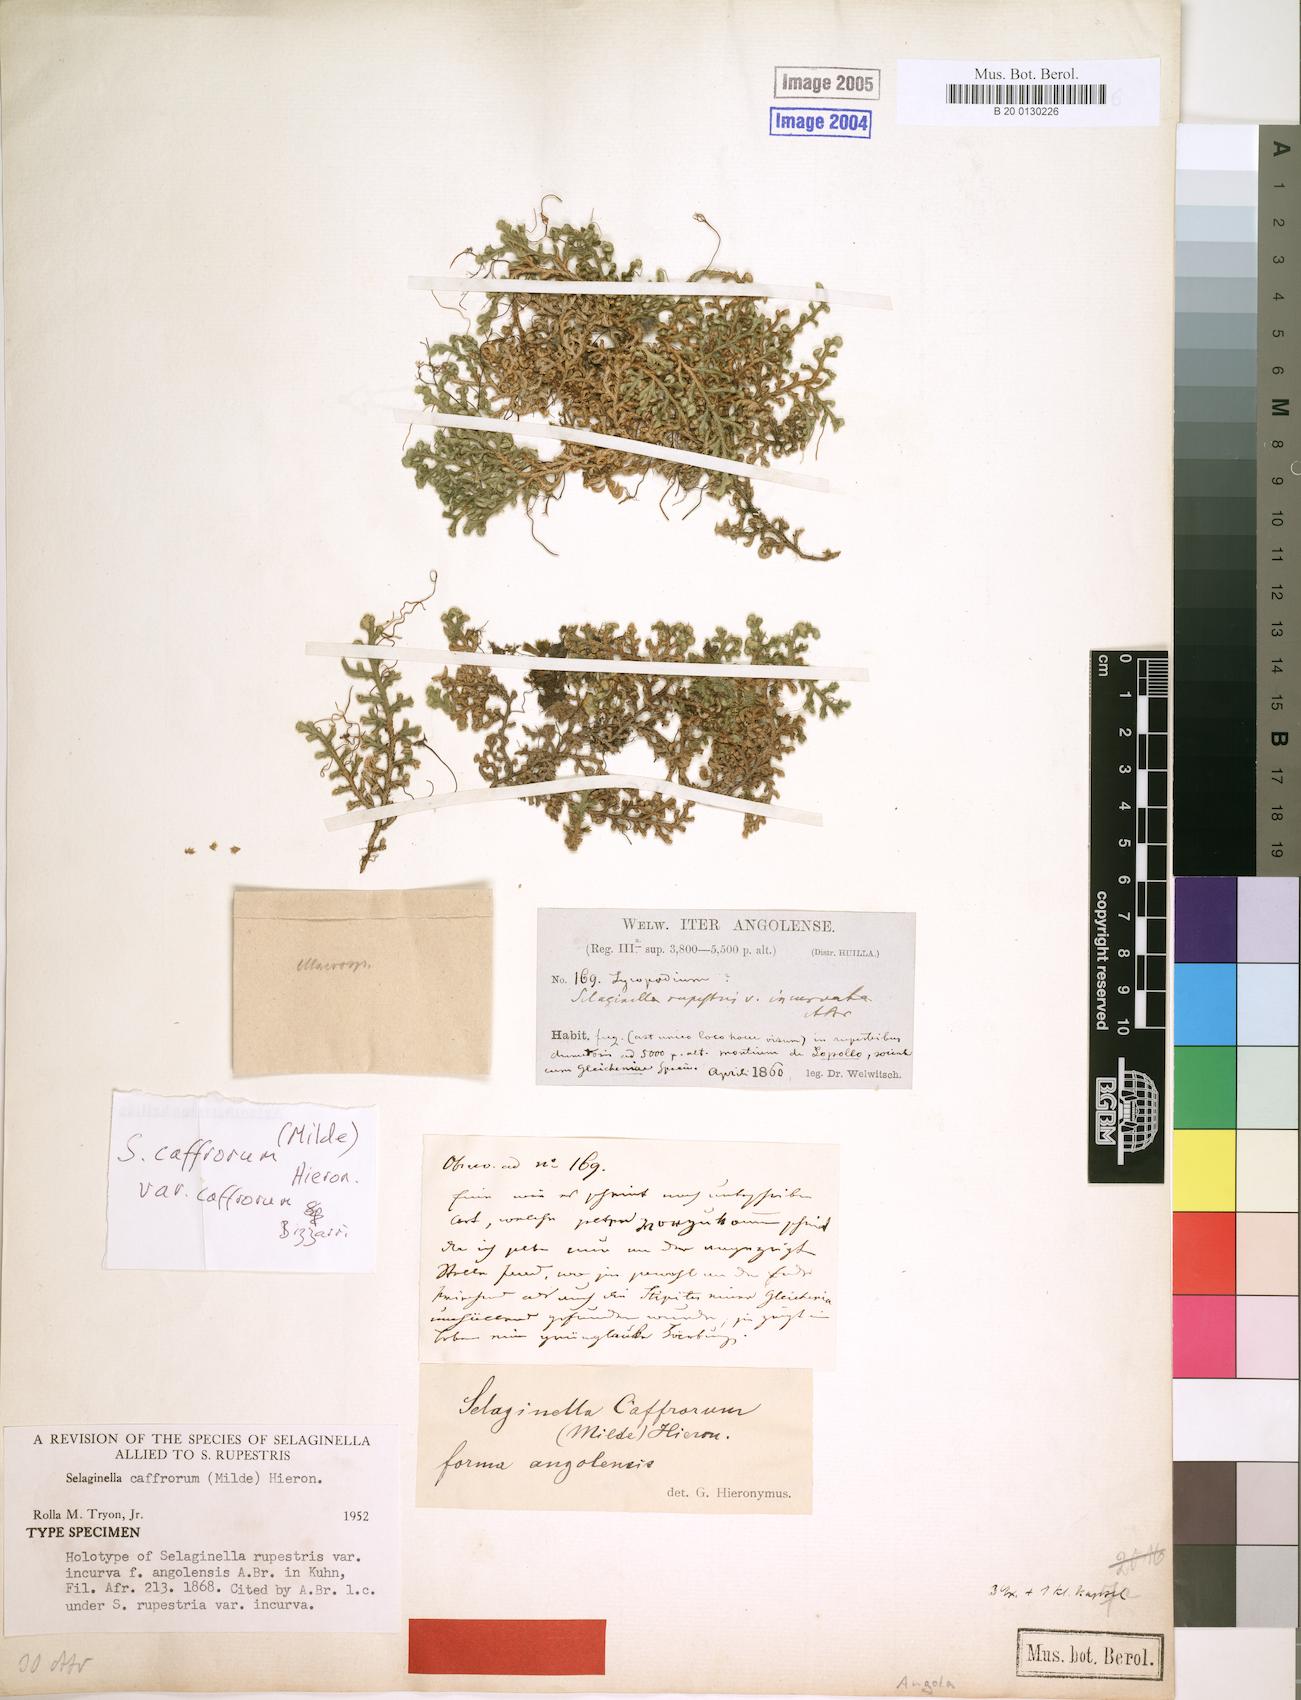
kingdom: Plantae
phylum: Tracheophyta
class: Lycopodiopsida
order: Selaginellales
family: Selaginellaceae
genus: Selaginella
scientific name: Selaginella caffrorum
